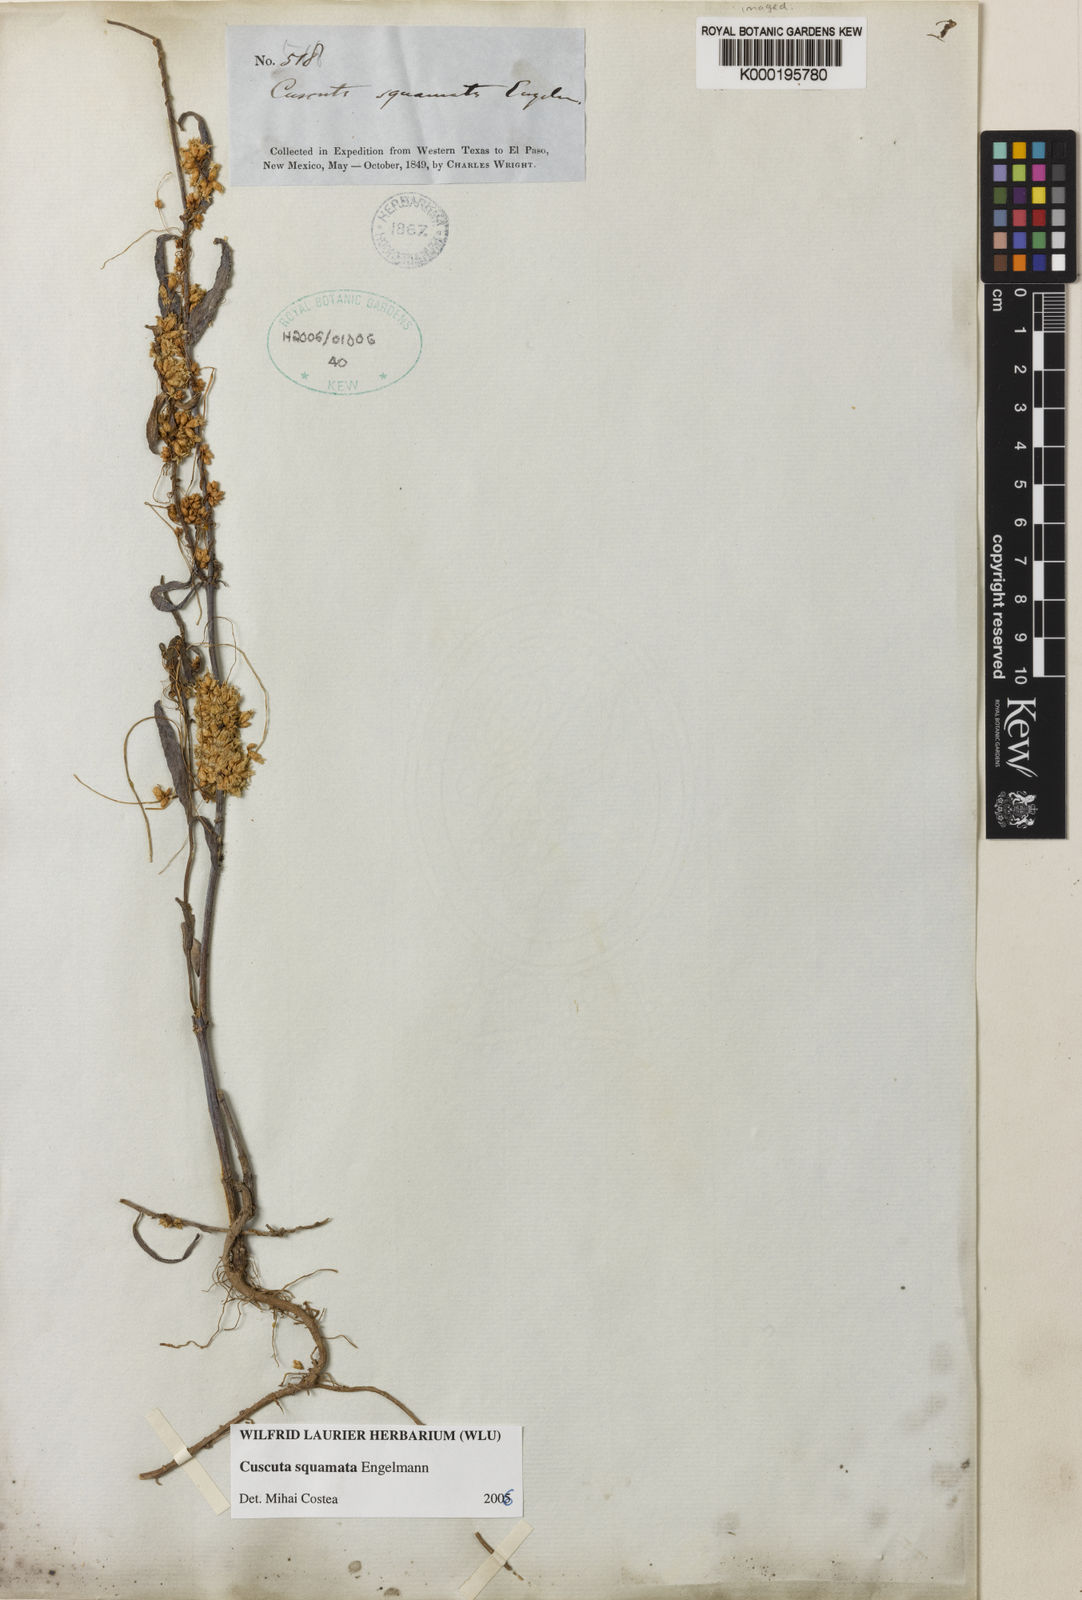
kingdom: Plantae
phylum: Tracheophyta
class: Magnoliopsida
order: Solanales
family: Convolvulaceae
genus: Cuscuta
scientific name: Cuscuta squamata
